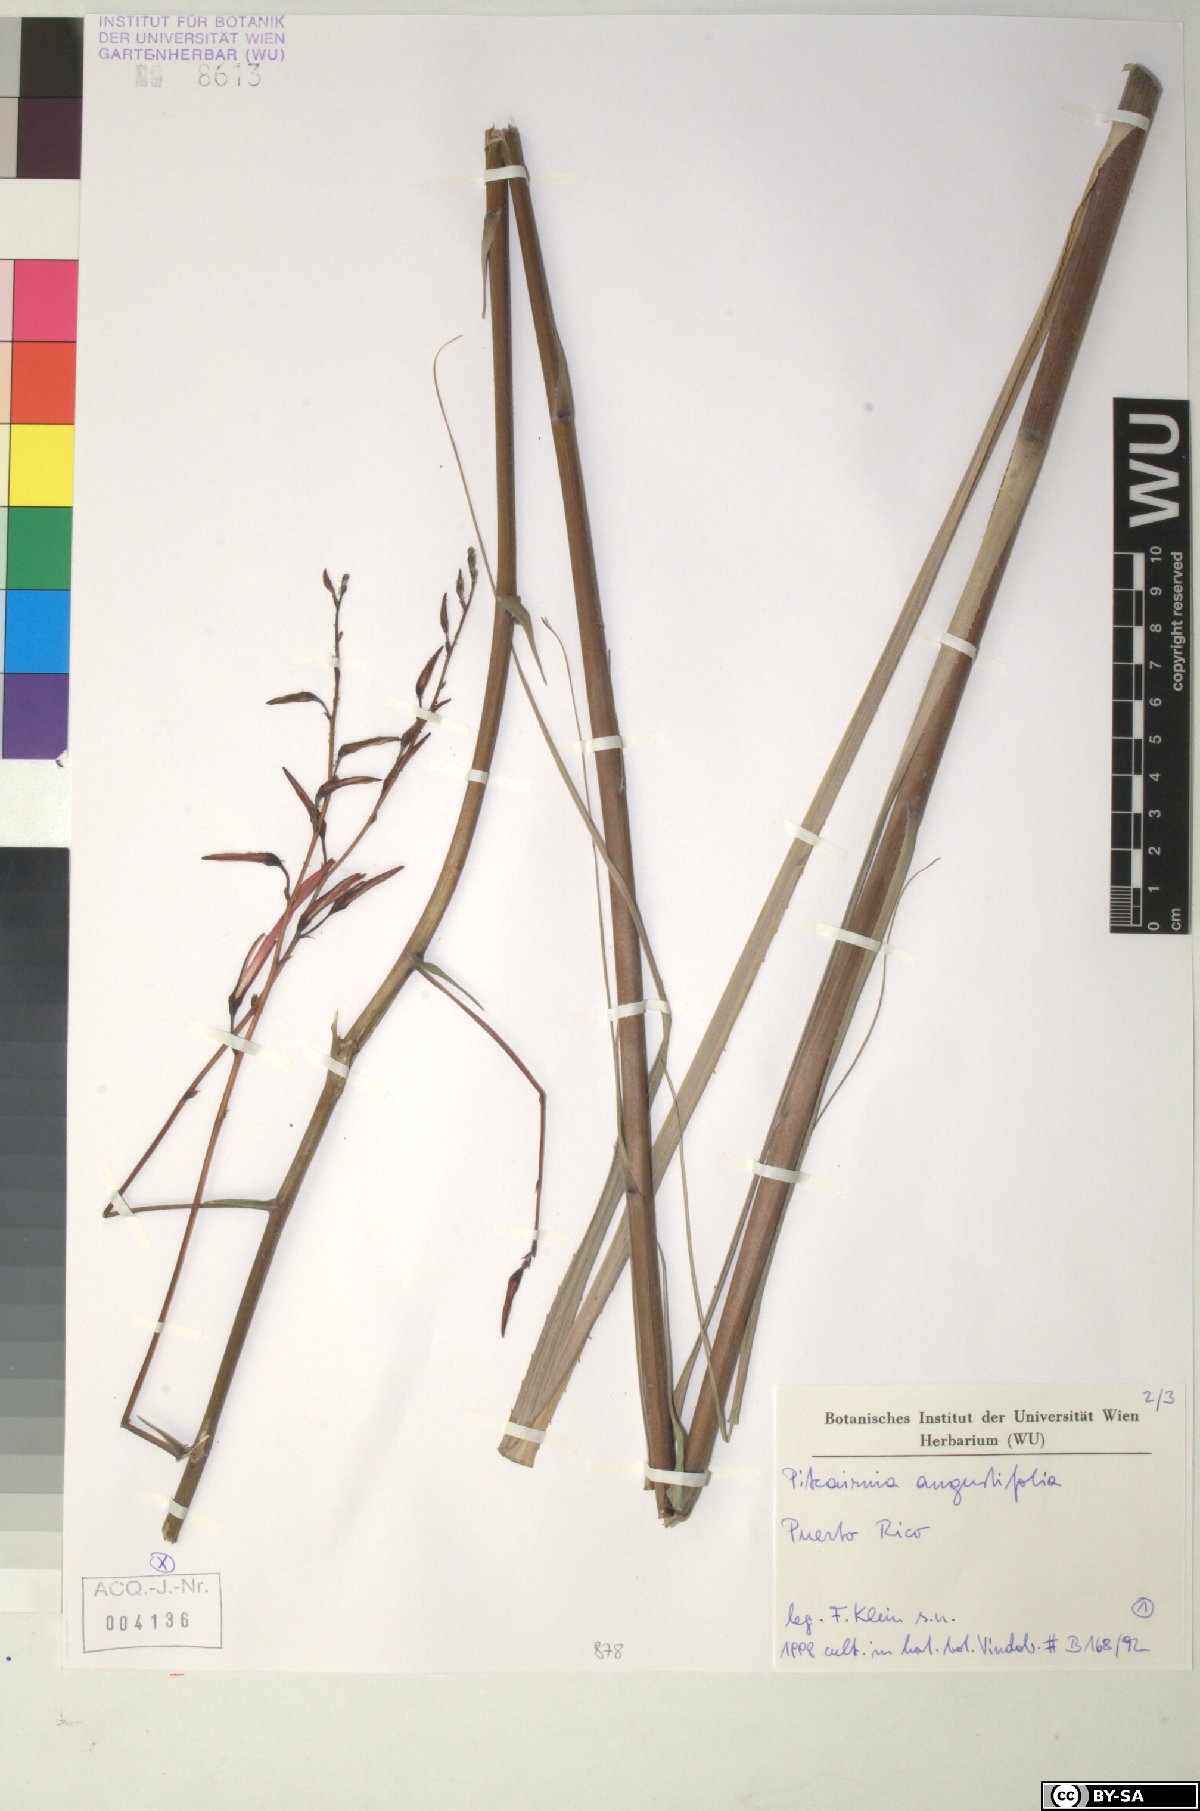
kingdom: Plantae
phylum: Tracheophyta
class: Liliopsida
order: Poales
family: Bromeliaceae
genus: Pitcairnia
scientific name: Pitcairnia angustifolia
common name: Clapper
